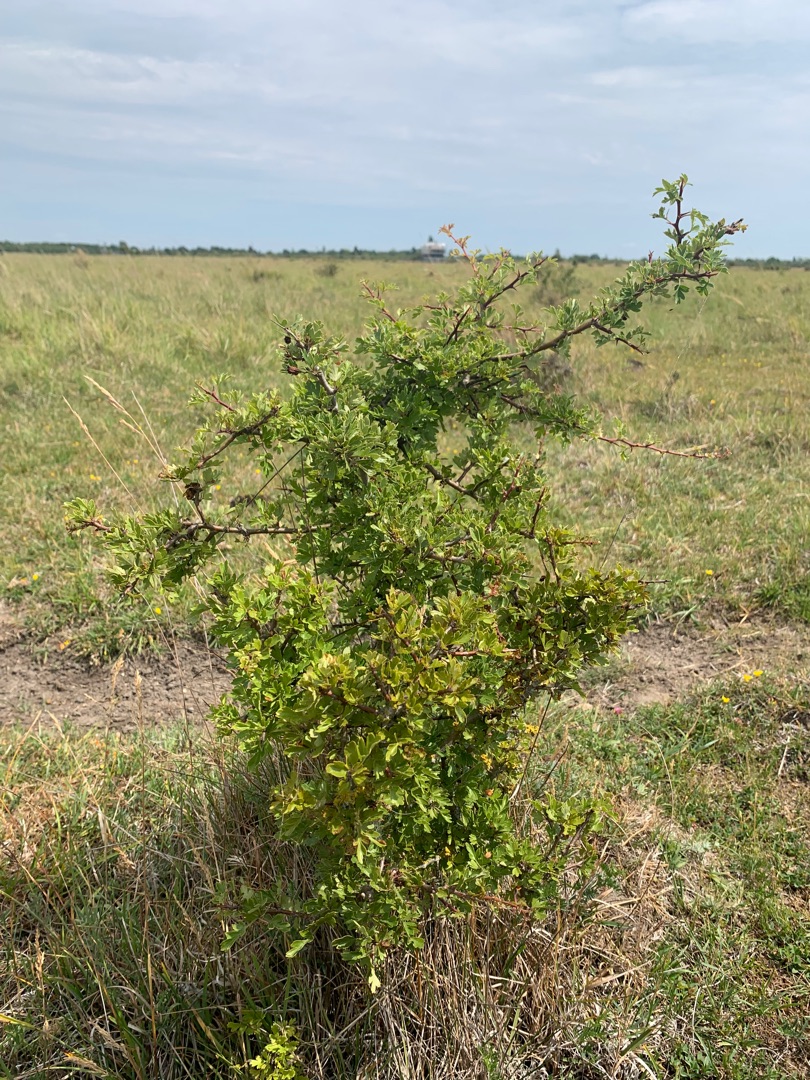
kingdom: Plantae
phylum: Tracheophyta
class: Magnoliopsida
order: Rosales
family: Rosaceae
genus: Crataegus
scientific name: Crataegus monogyna
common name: Engriflet hvidtjørn
